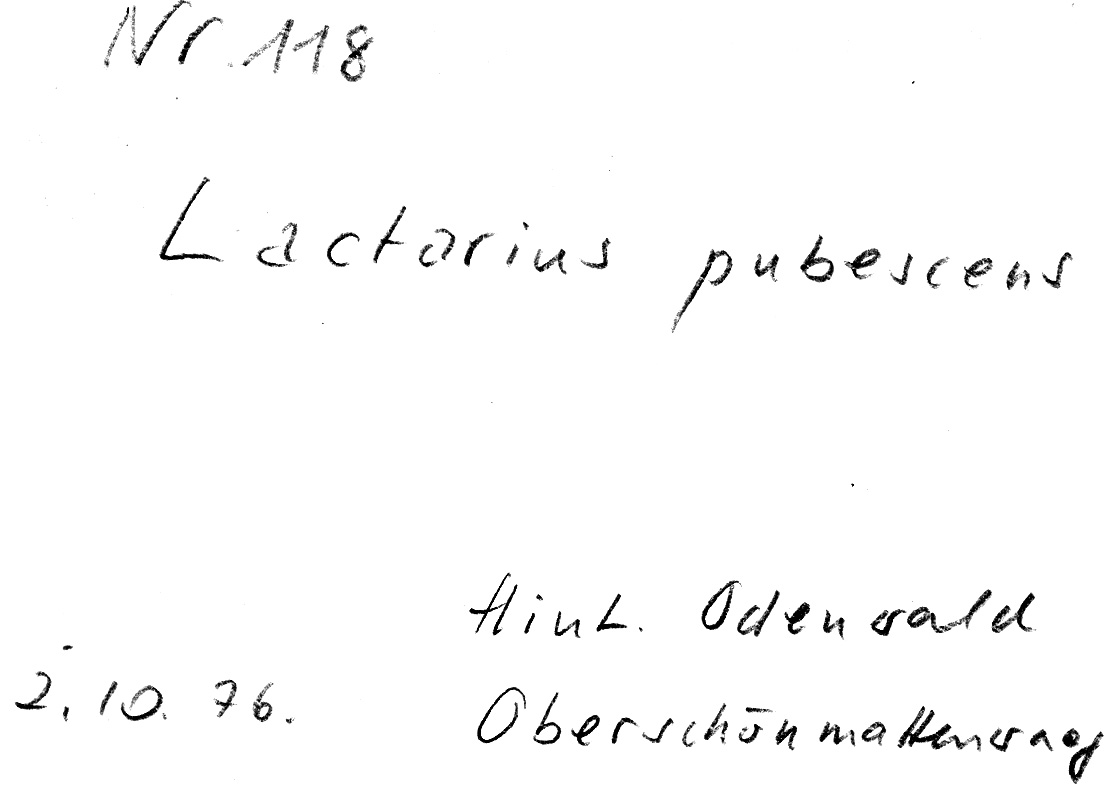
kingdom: Fungi
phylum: Basidiomycota
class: Agaricomycetes
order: Russulales
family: Russulaceae
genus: Lactarius
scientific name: Lactarius pubescens
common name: Bearded milkcap
